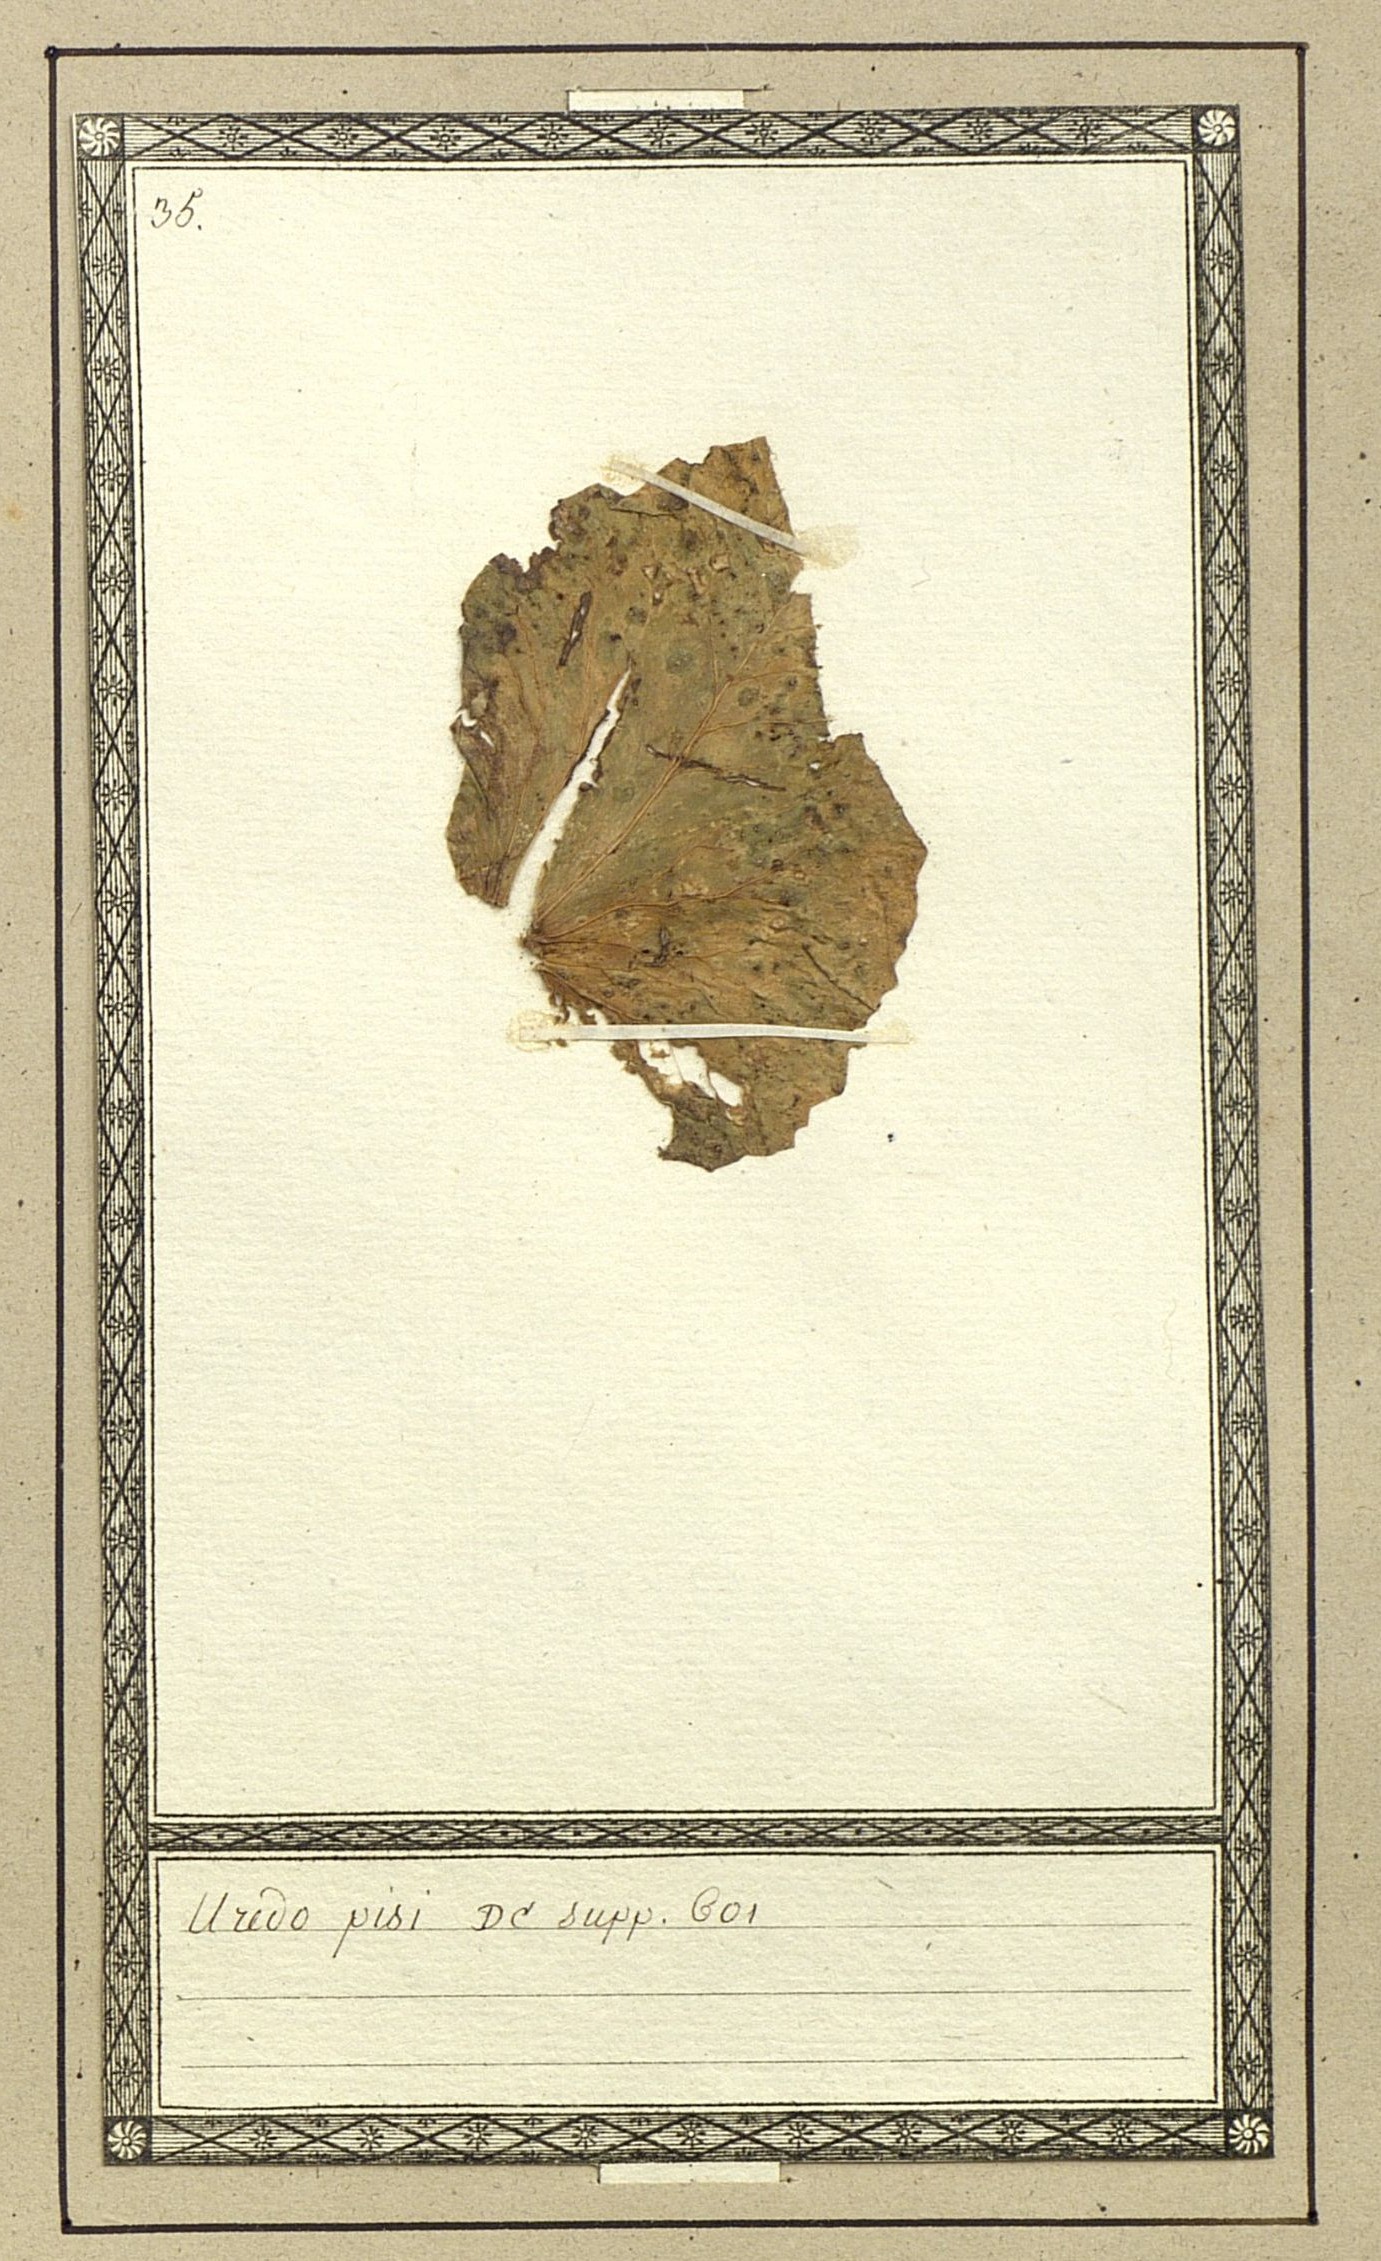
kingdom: Fungi
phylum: Basidiomycota
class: Pucciniomycetes
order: Pucciniales
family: Pucciniaceae
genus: Uredo
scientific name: Uredo pisi
